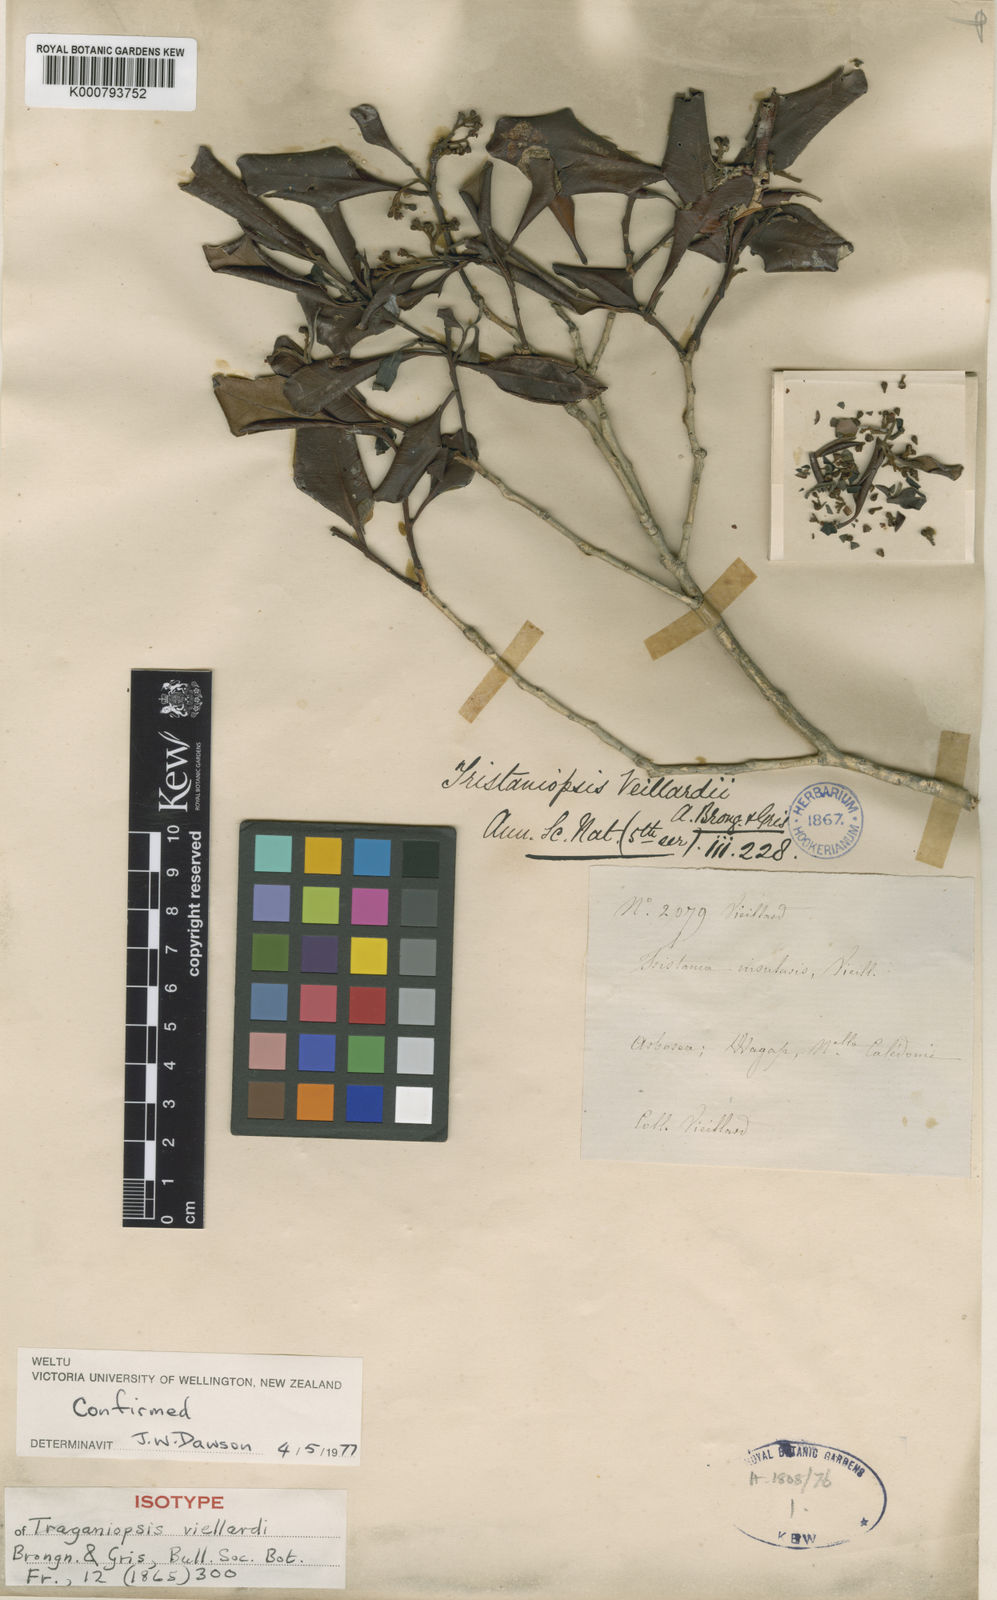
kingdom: Plantae
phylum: Tracheophyta
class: Magnoliopsida
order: Myrtales
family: Myrtaceae
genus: Tristaniopsis
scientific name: Tristaniopsis vieillardii
